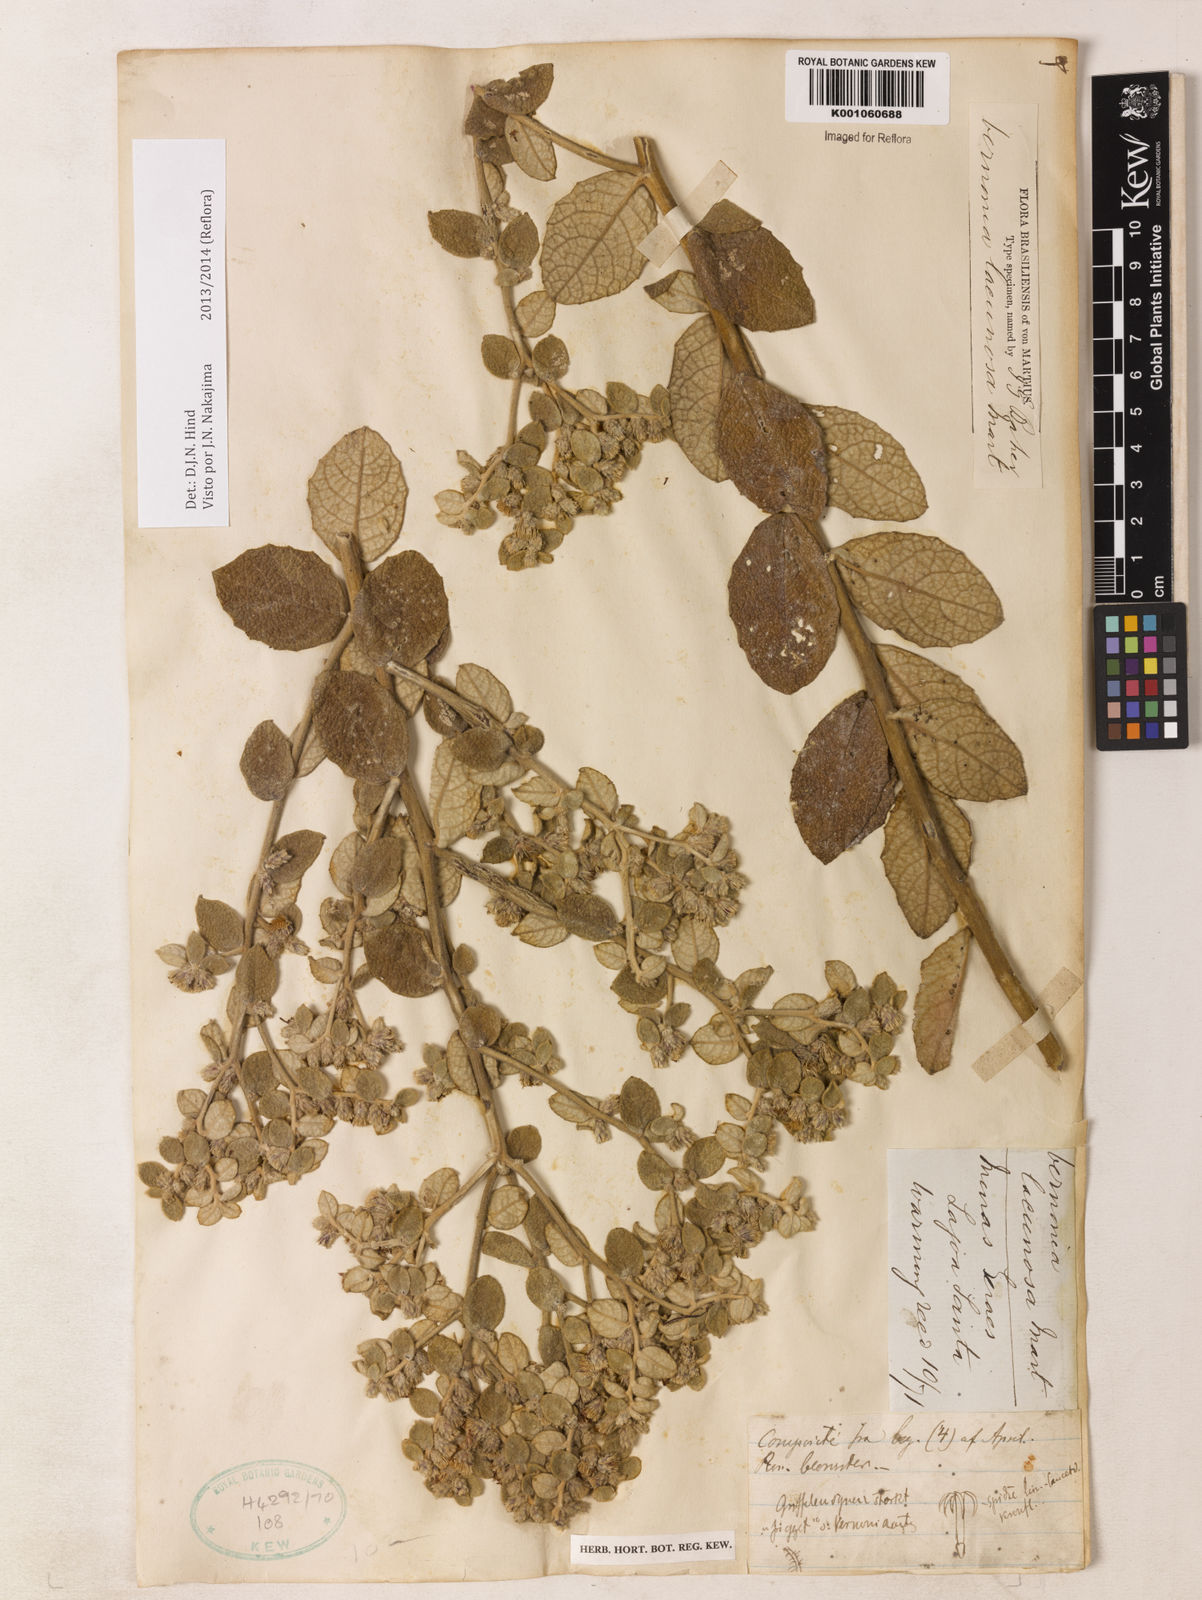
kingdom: Plantae
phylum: Tracheophyta
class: Magnoliopsida
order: Asterales
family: Asteraceae
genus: Lessingianthus
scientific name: Lessingianthus lacunosus
